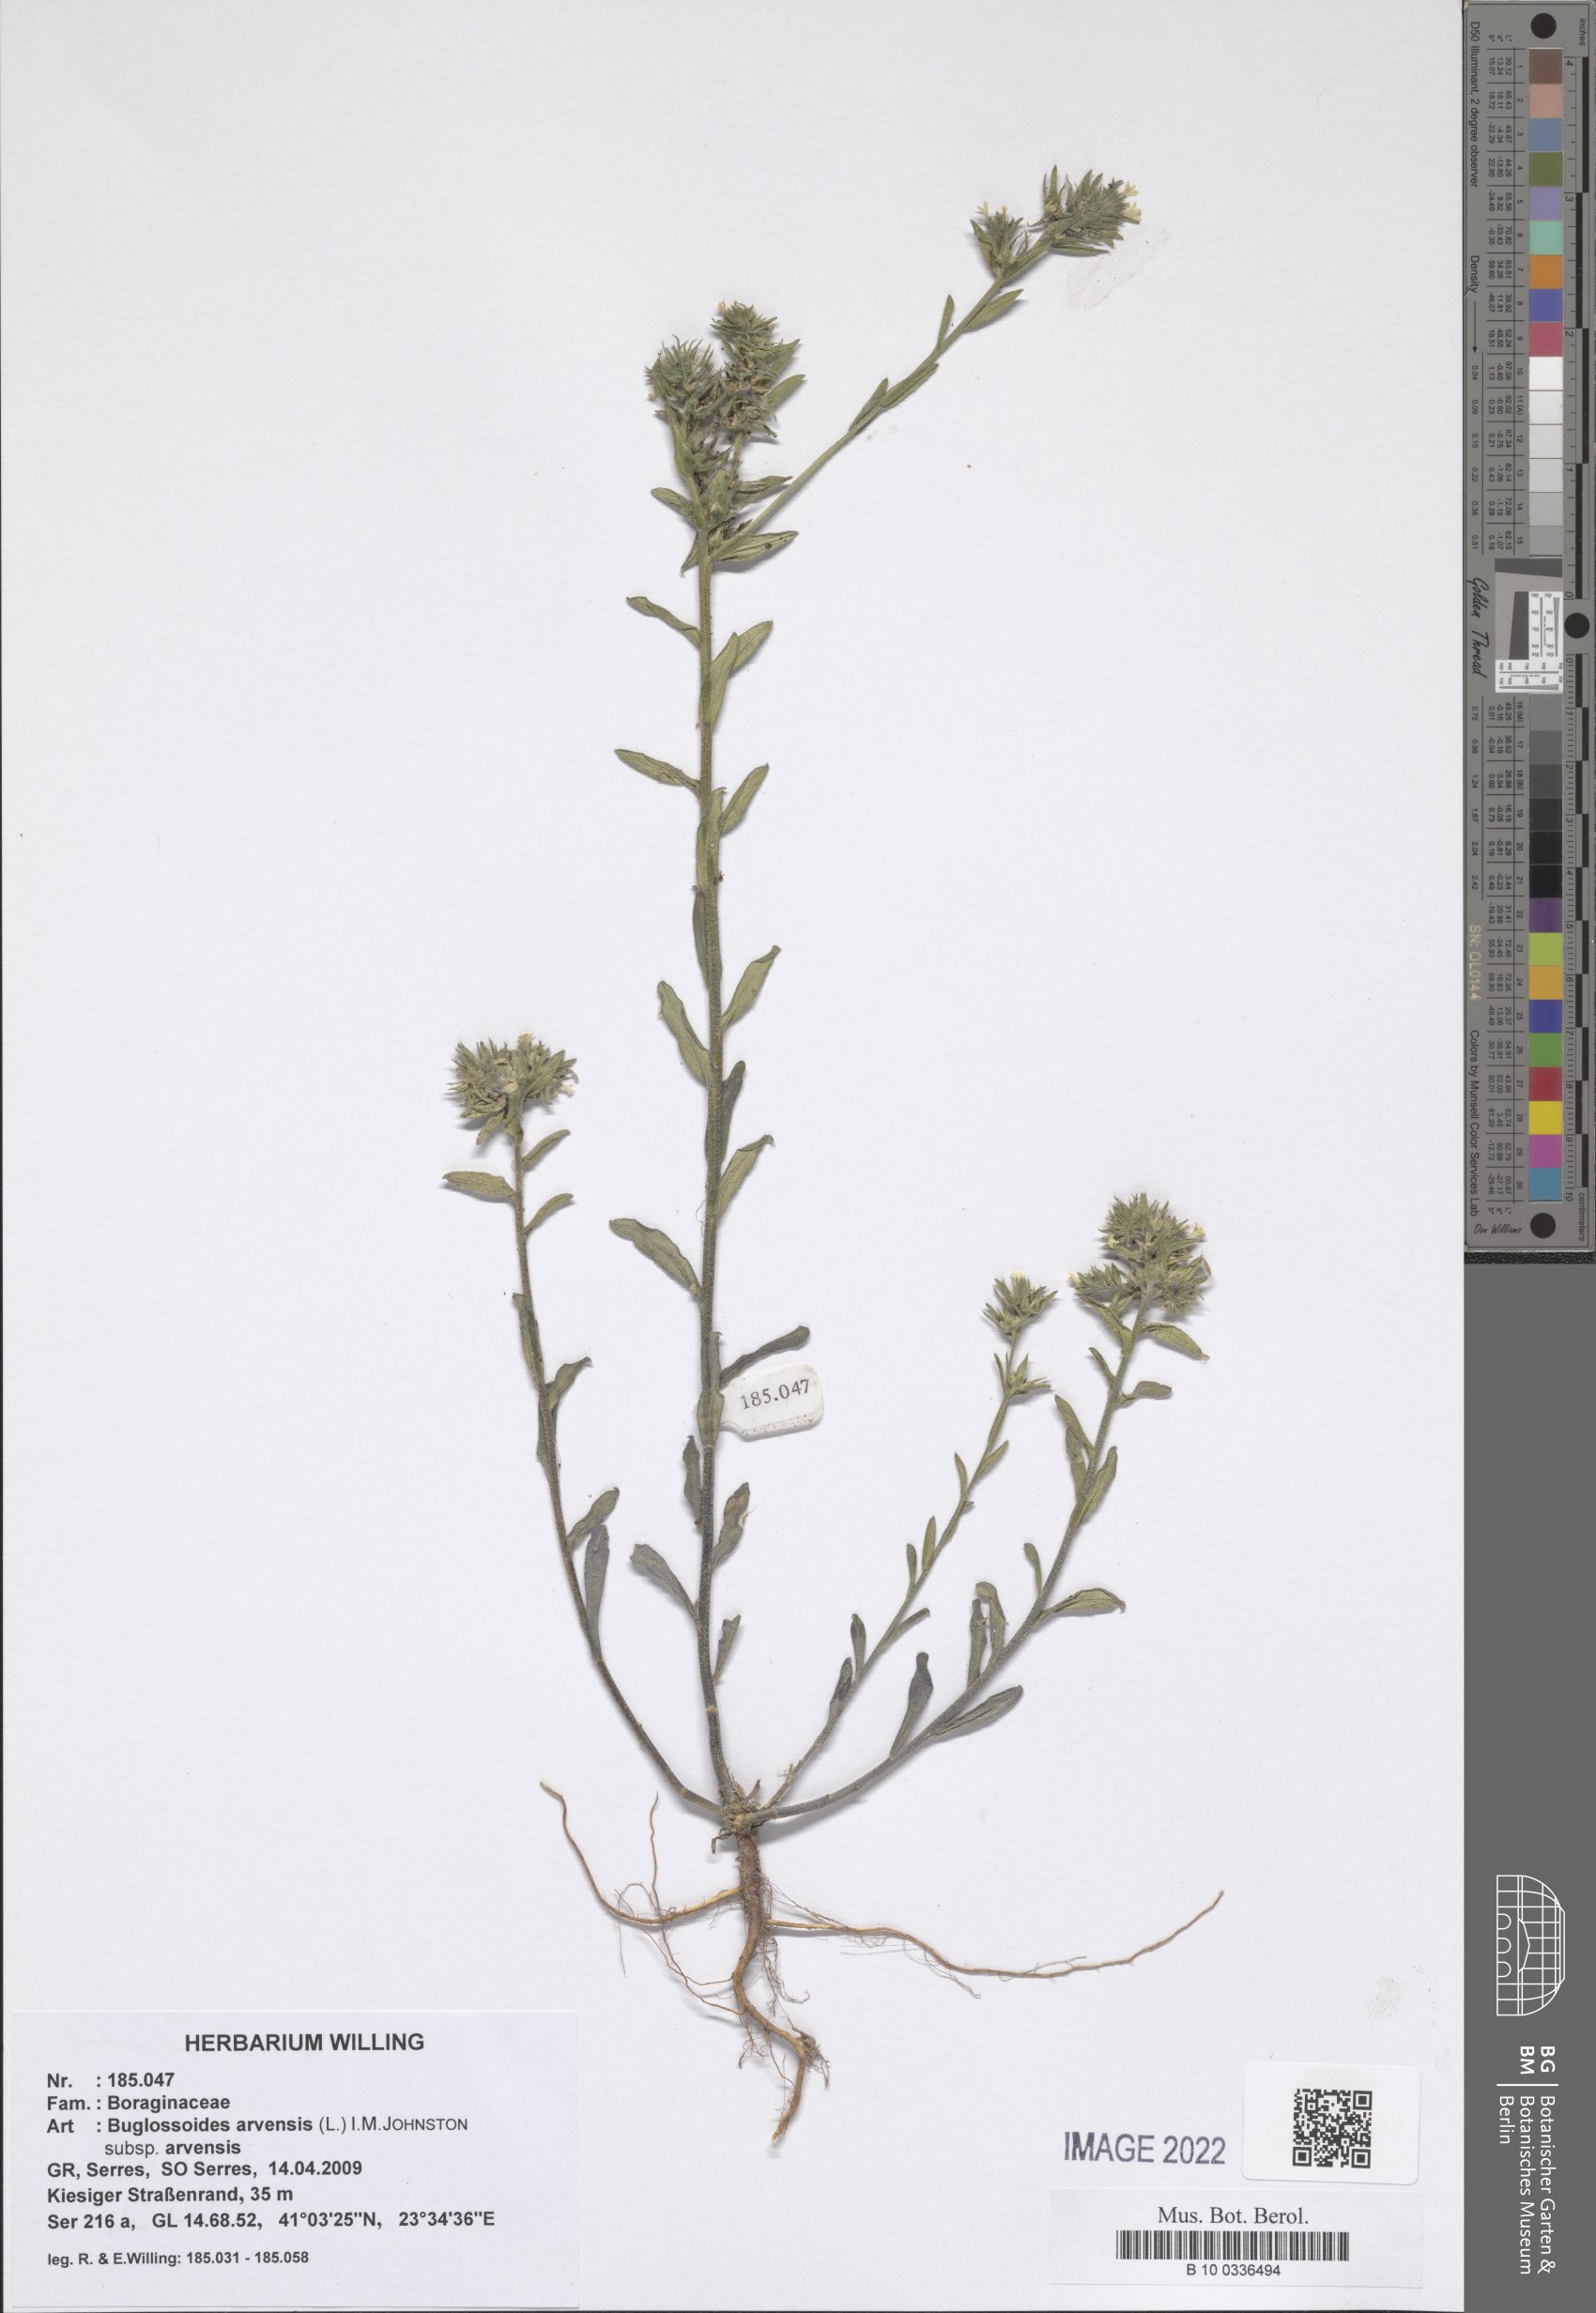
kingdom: Plantae
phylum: Tracheophyta
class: Magnoliopsida
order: Boraginales
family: Boraginaceae
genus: Buglossoides
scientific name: Buglossoides arvensis
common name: Corn gromwell
